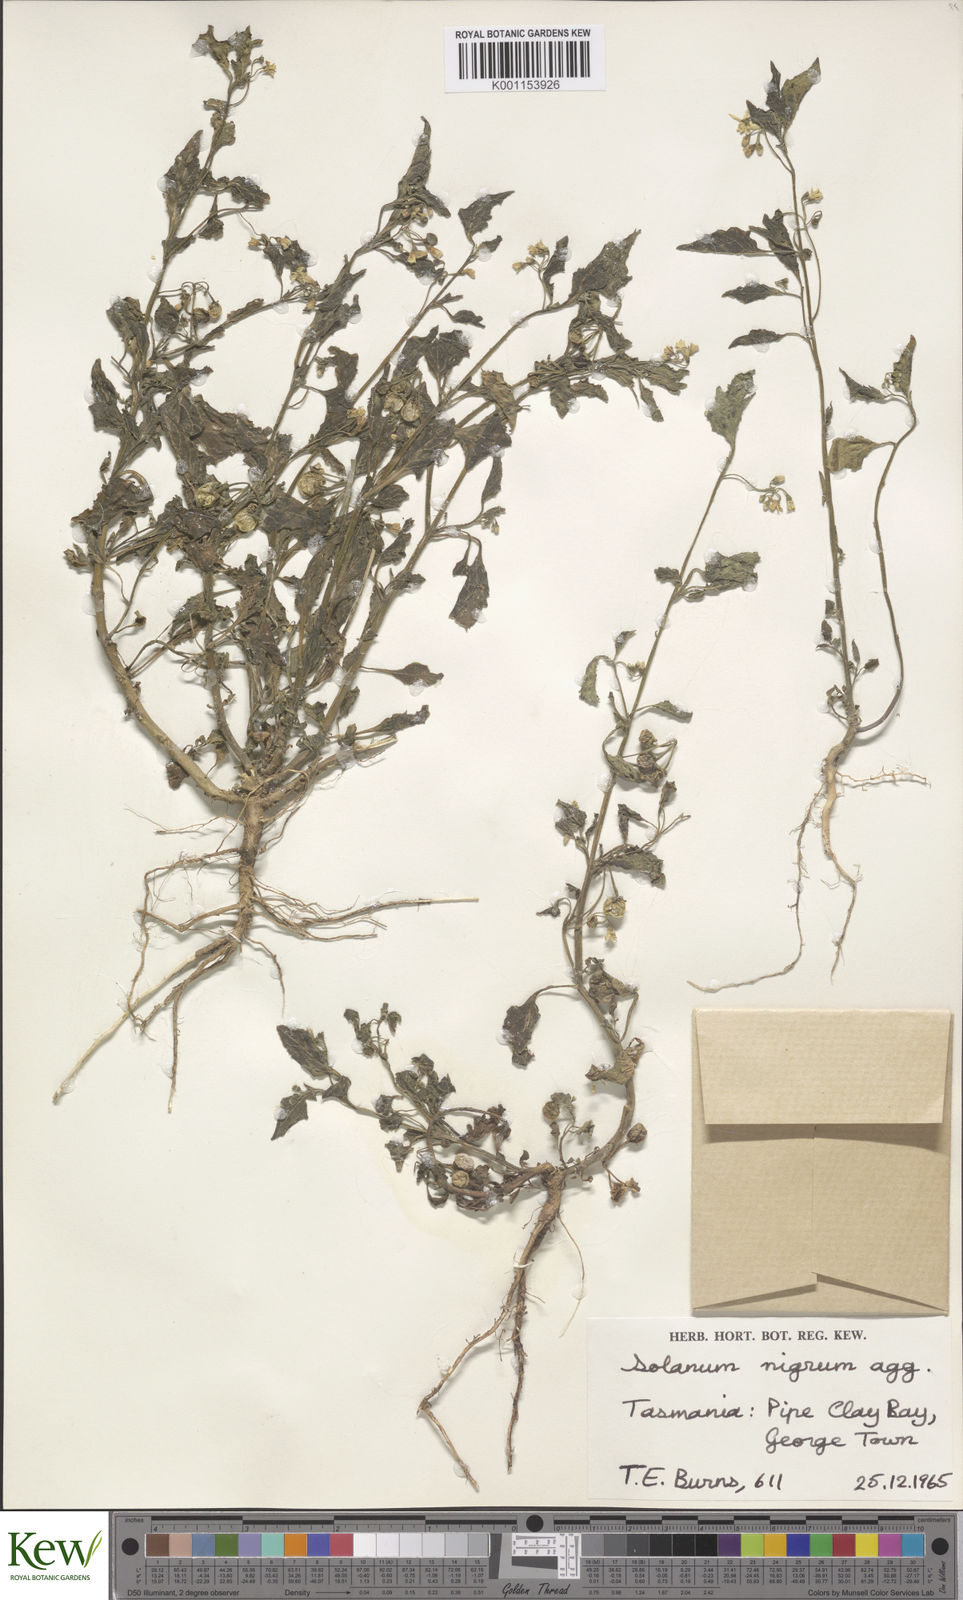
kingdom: Plantae
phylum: Tracheophyta
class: Magnoliopsida
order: Solanales
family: Solanaceae
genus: Solanum
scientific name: Solanum nigrum
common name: Black nightshade
